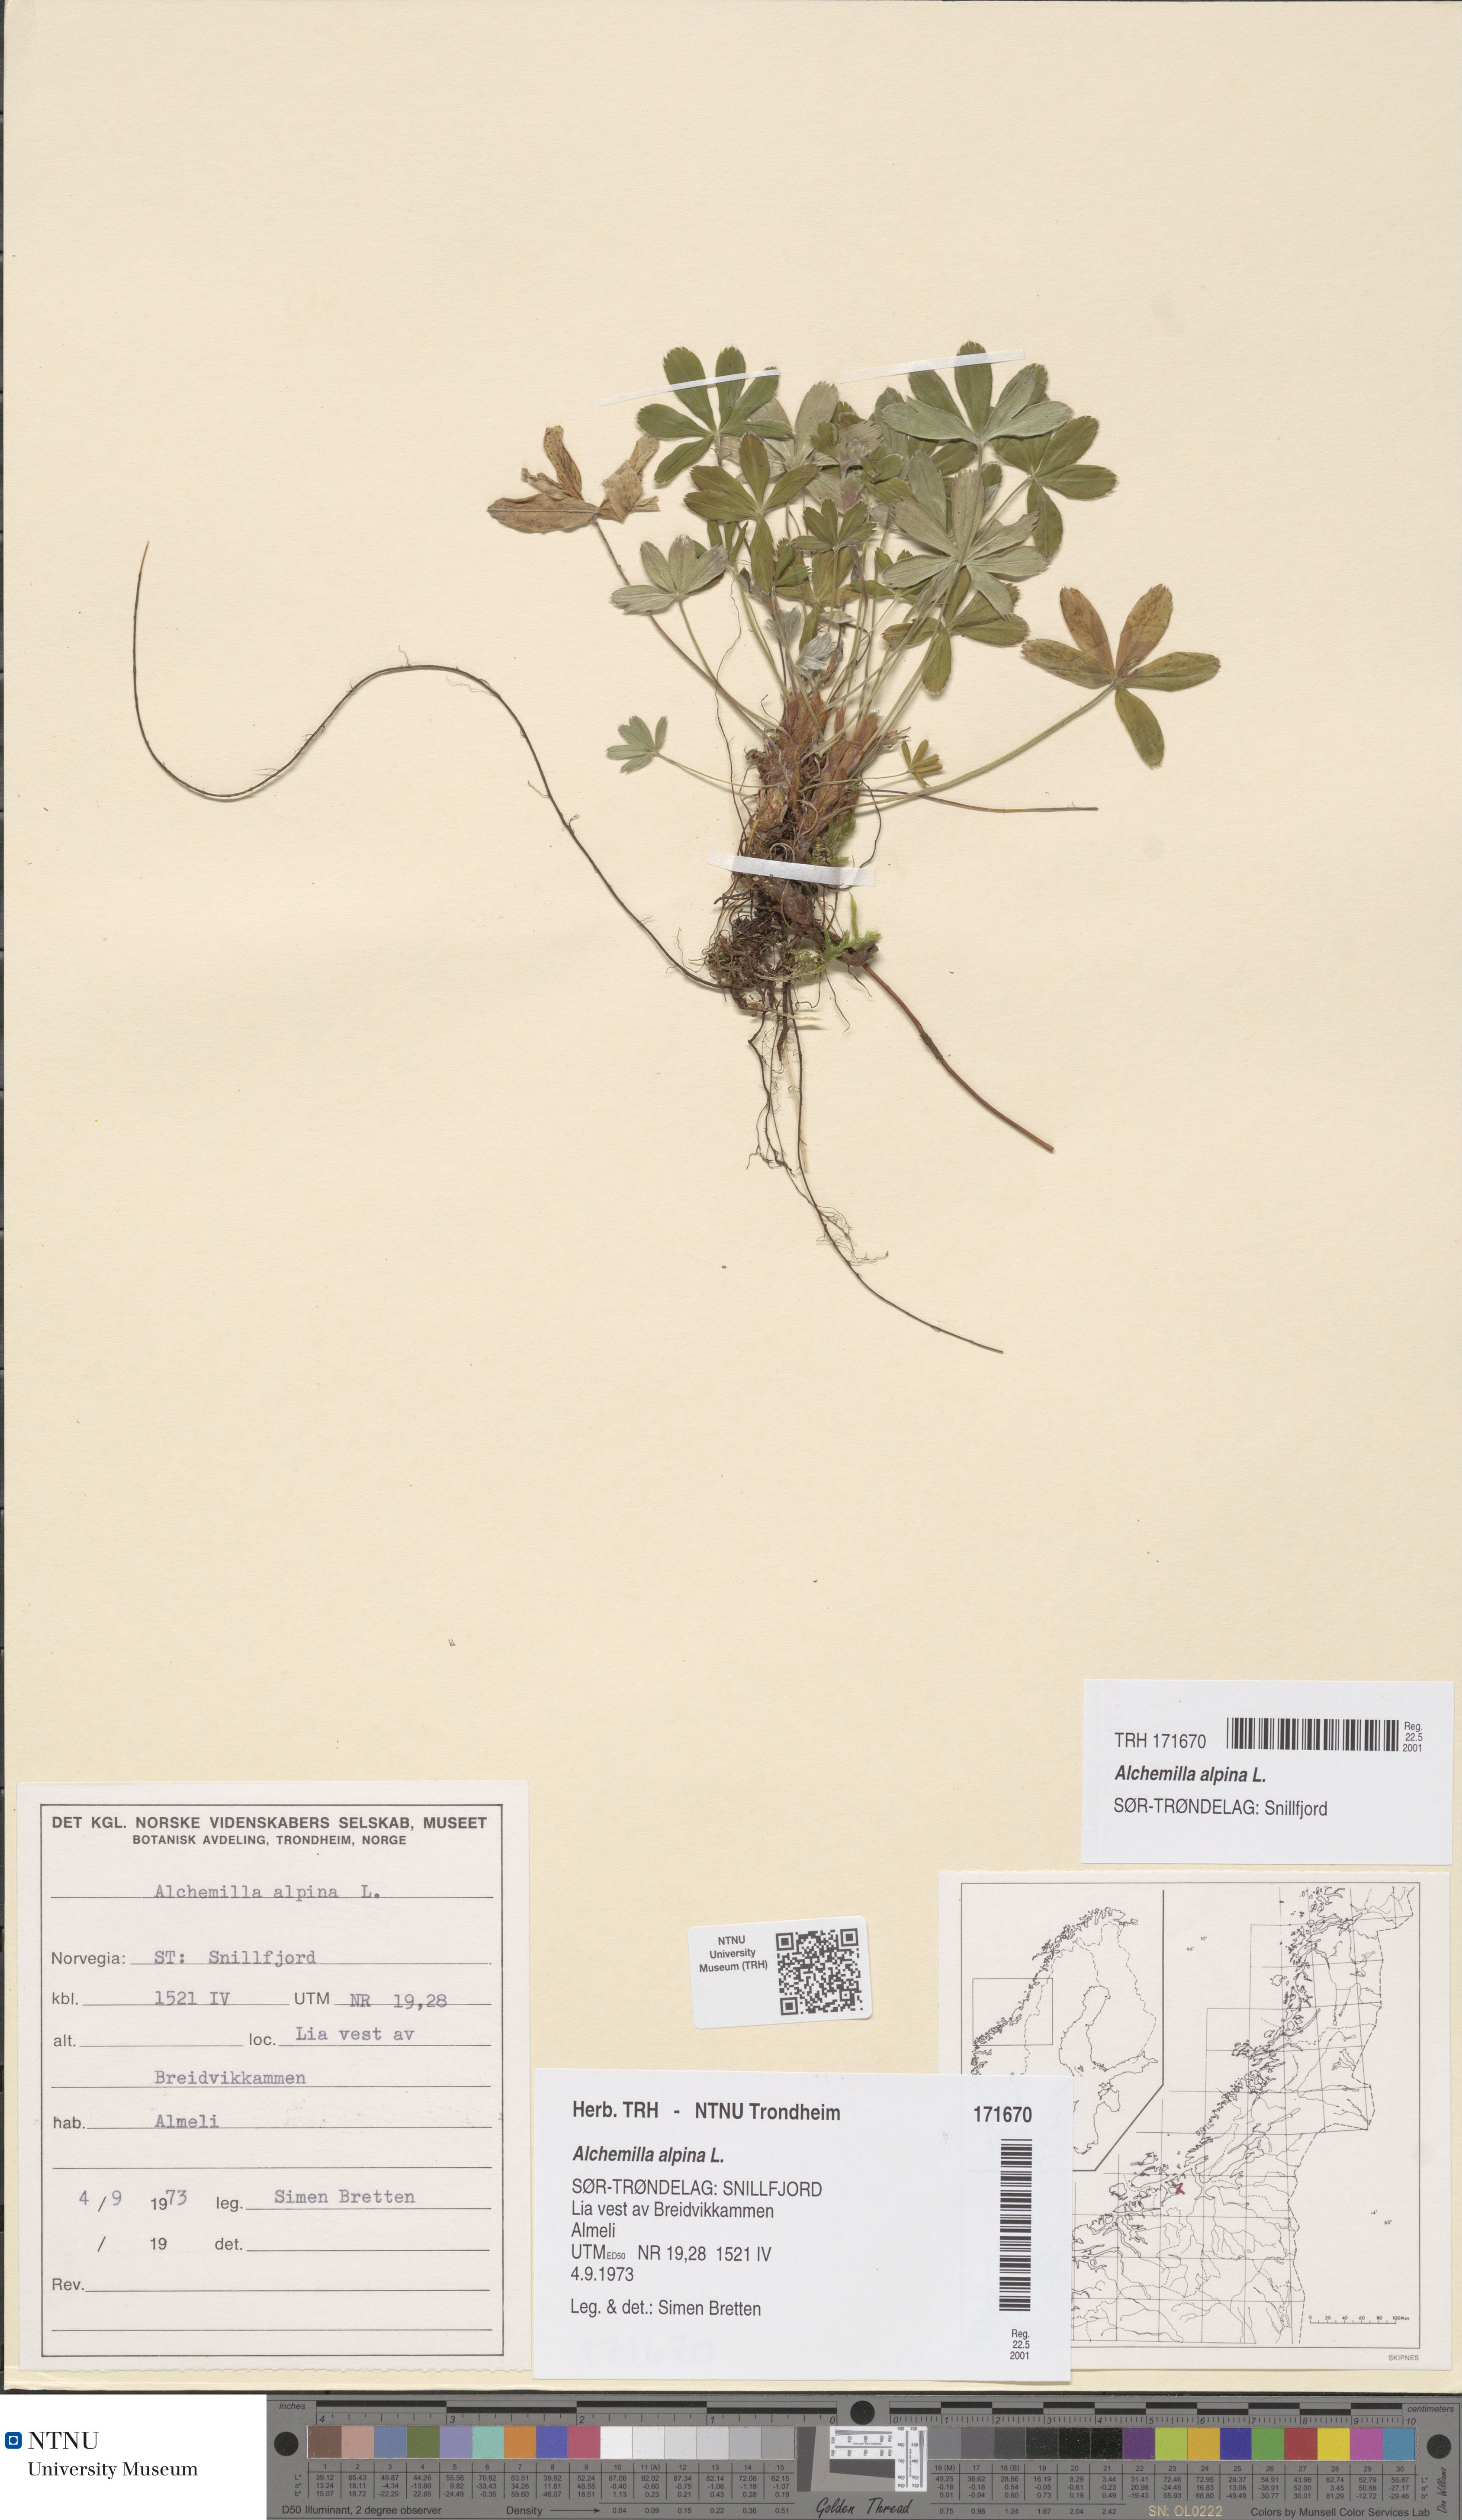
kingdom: Plantae
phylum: Tracheophyta
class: Magnoliopsida
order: Rosales
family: Rosaceae
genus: Alchemilla
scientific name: Alchemilla alpina
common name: Alpine lady's-mantle
